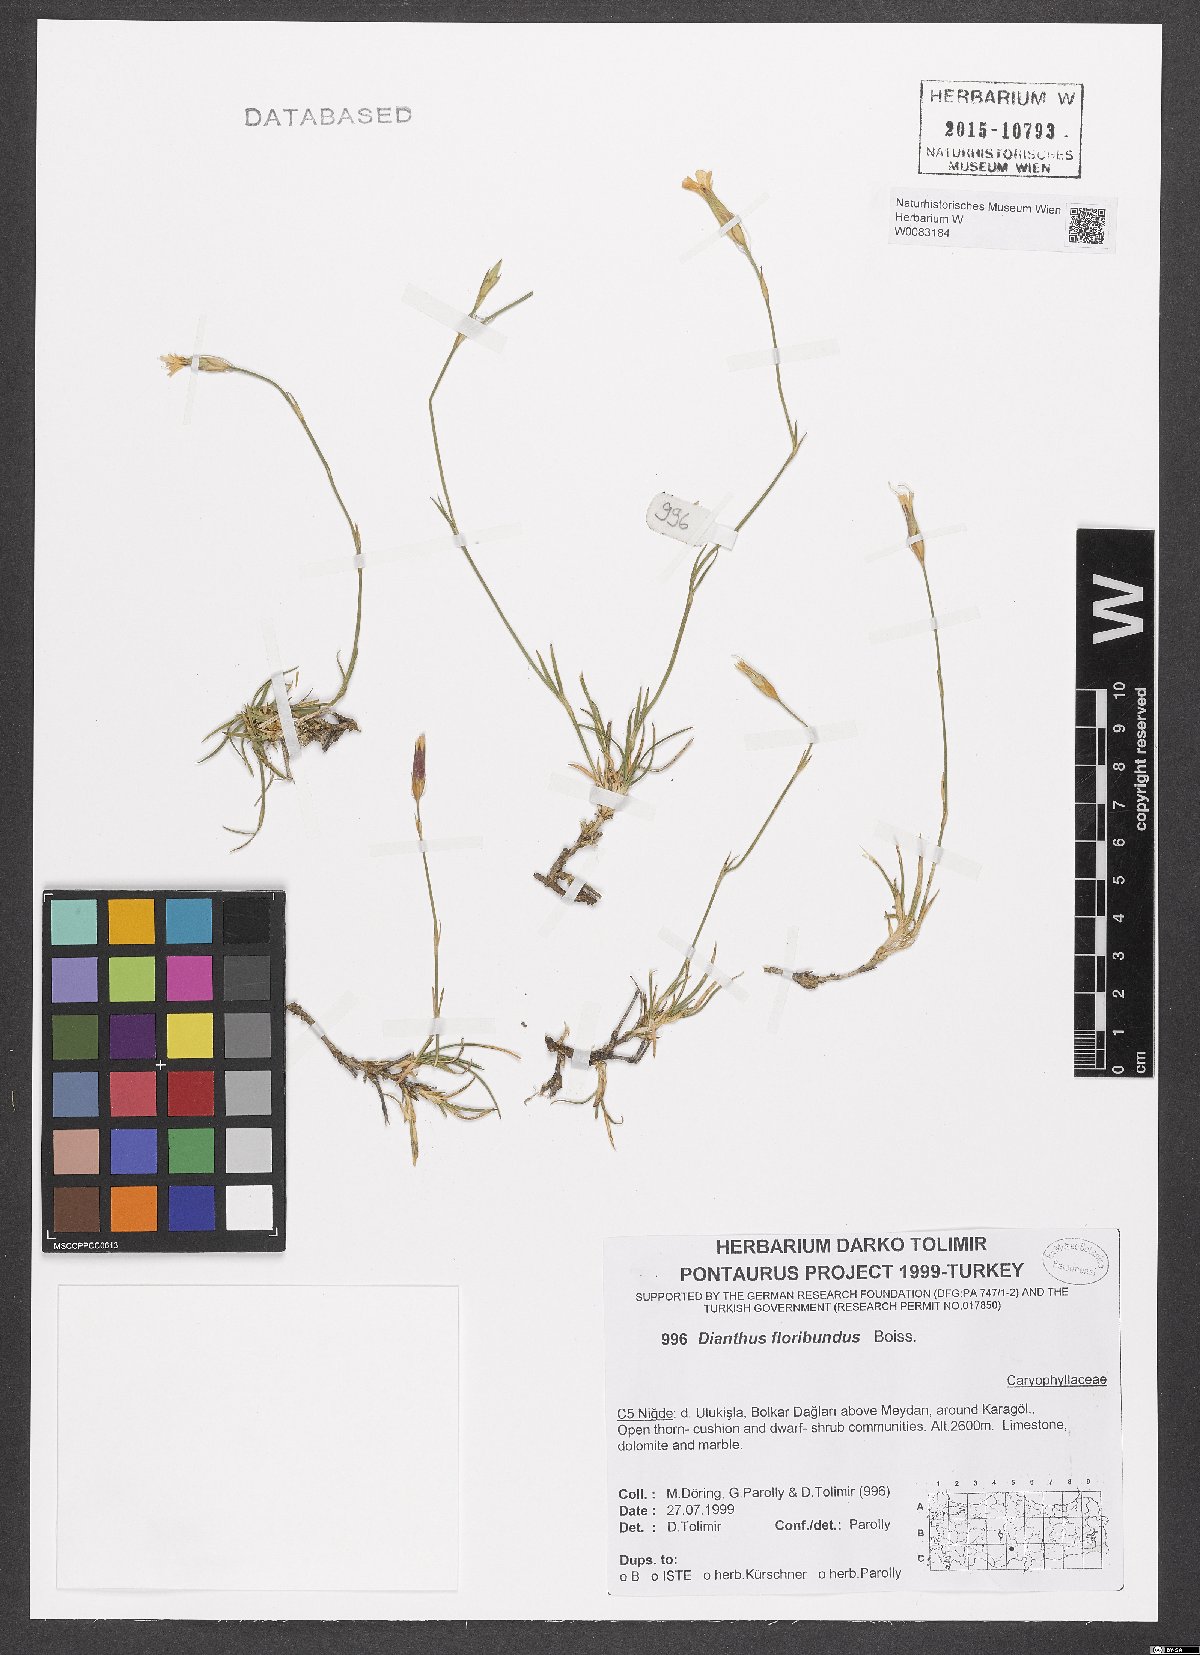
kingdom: Plantae
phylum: Tracheophyta
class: Magnoliopsida
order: Caryophyllales
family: Caryophyllaceae
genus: Dianthus
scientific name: Dianthus floribundus
